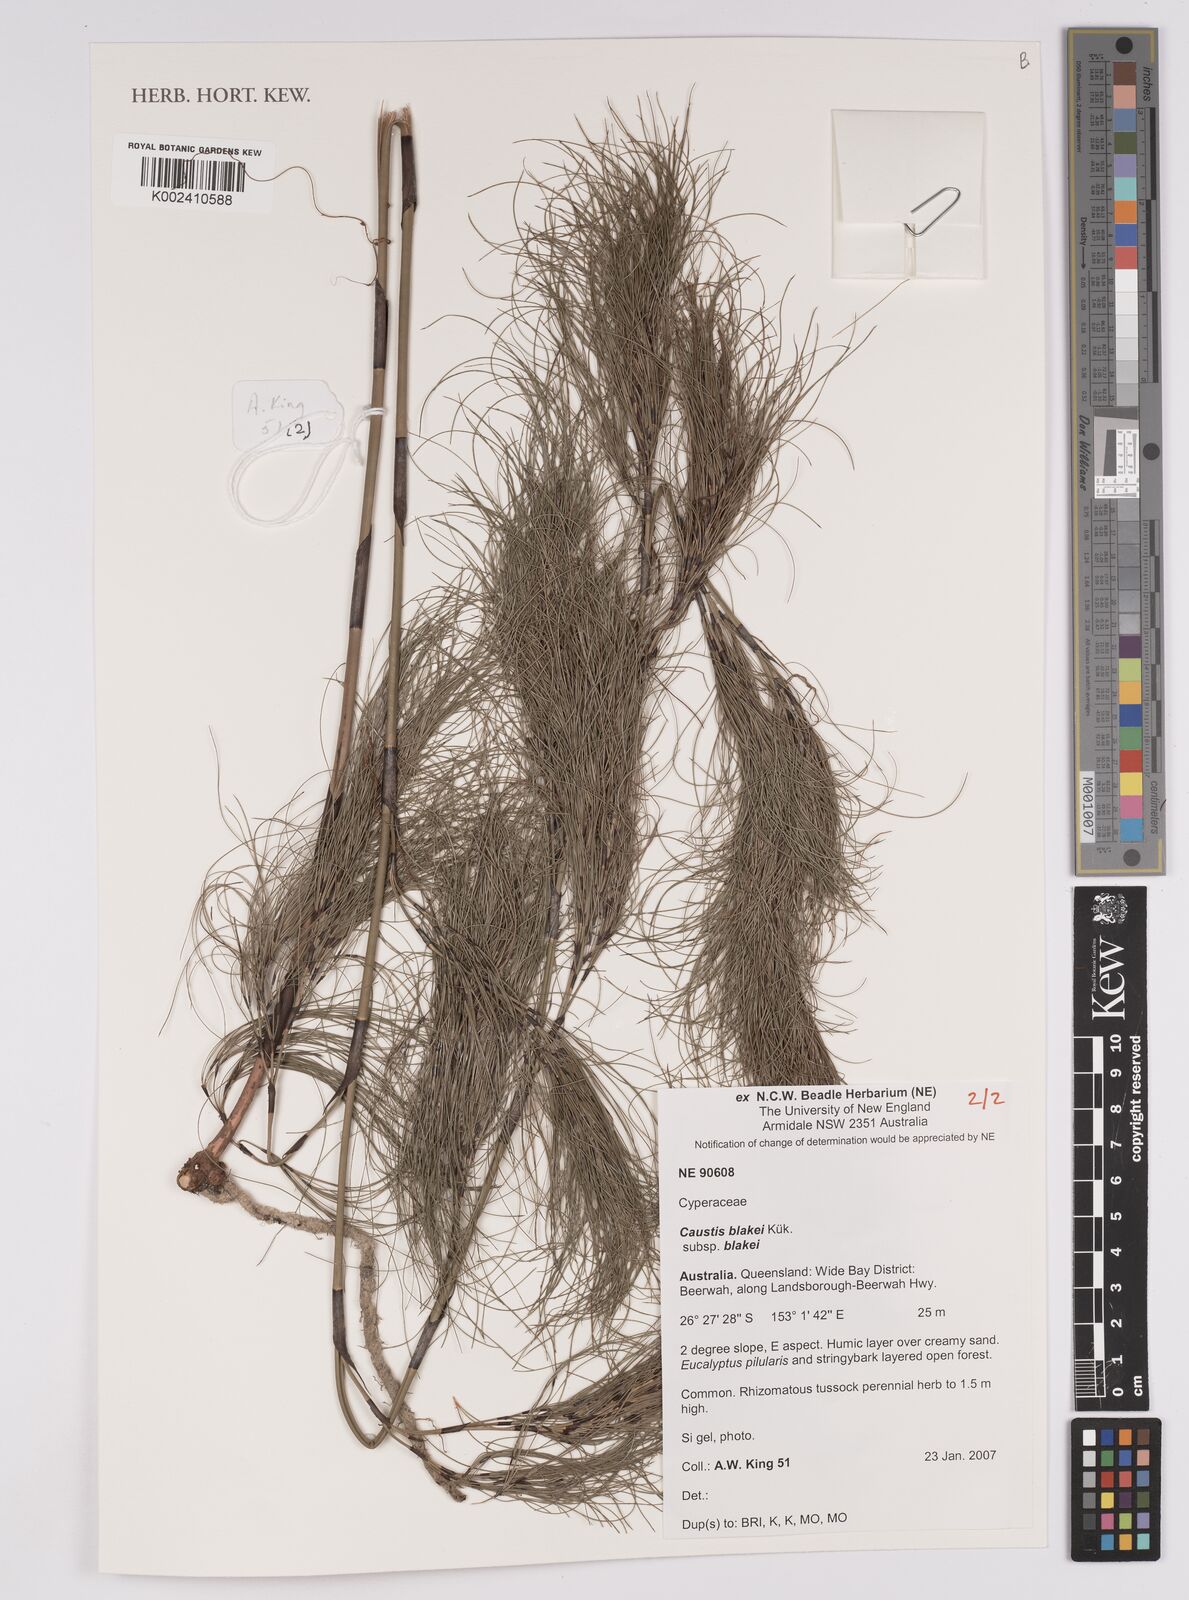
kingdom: Plantae
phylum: Tracheophyta
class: Liliopsida
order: Poales
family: Cyperaceae
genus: Caustis
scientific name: Caustis blakei
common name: Foxtail-fern
